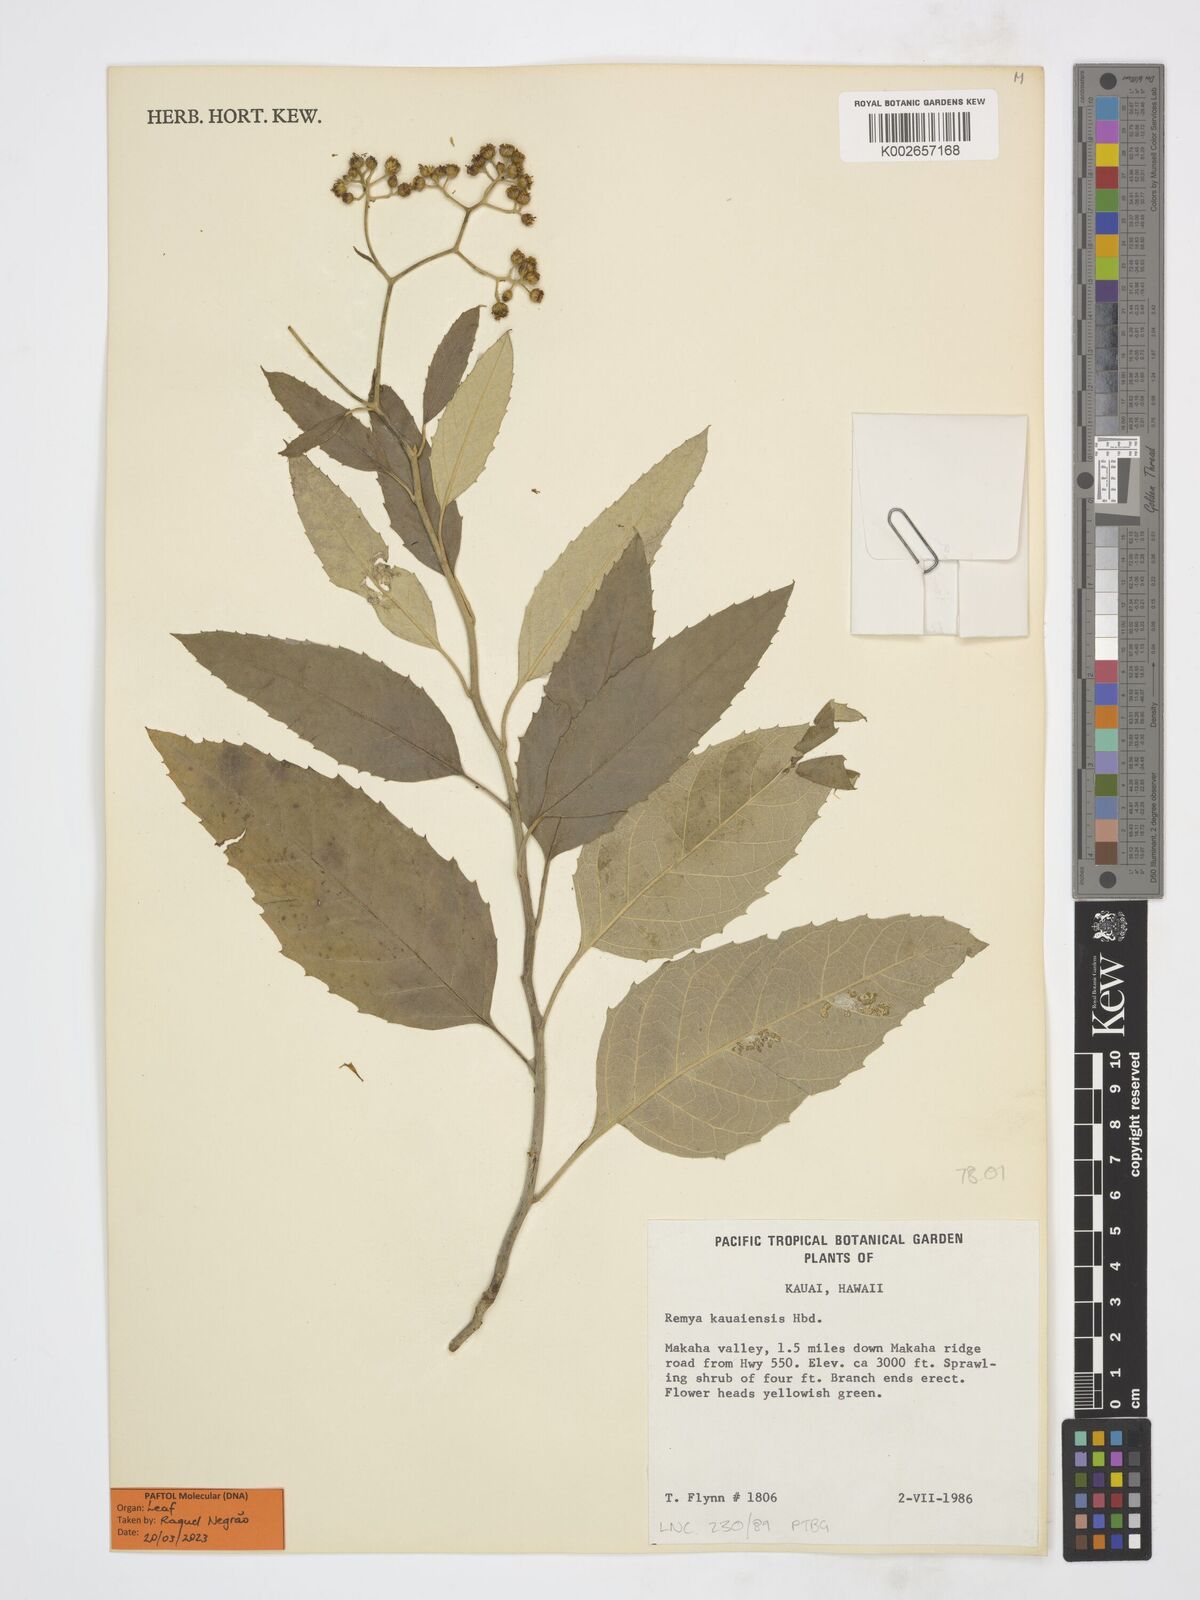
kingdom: Plantae
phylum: Tracheophyta
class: Magnoliopsida
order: Asterales
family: Asteraceae
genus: Remya
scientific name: Remya kauaiensis
